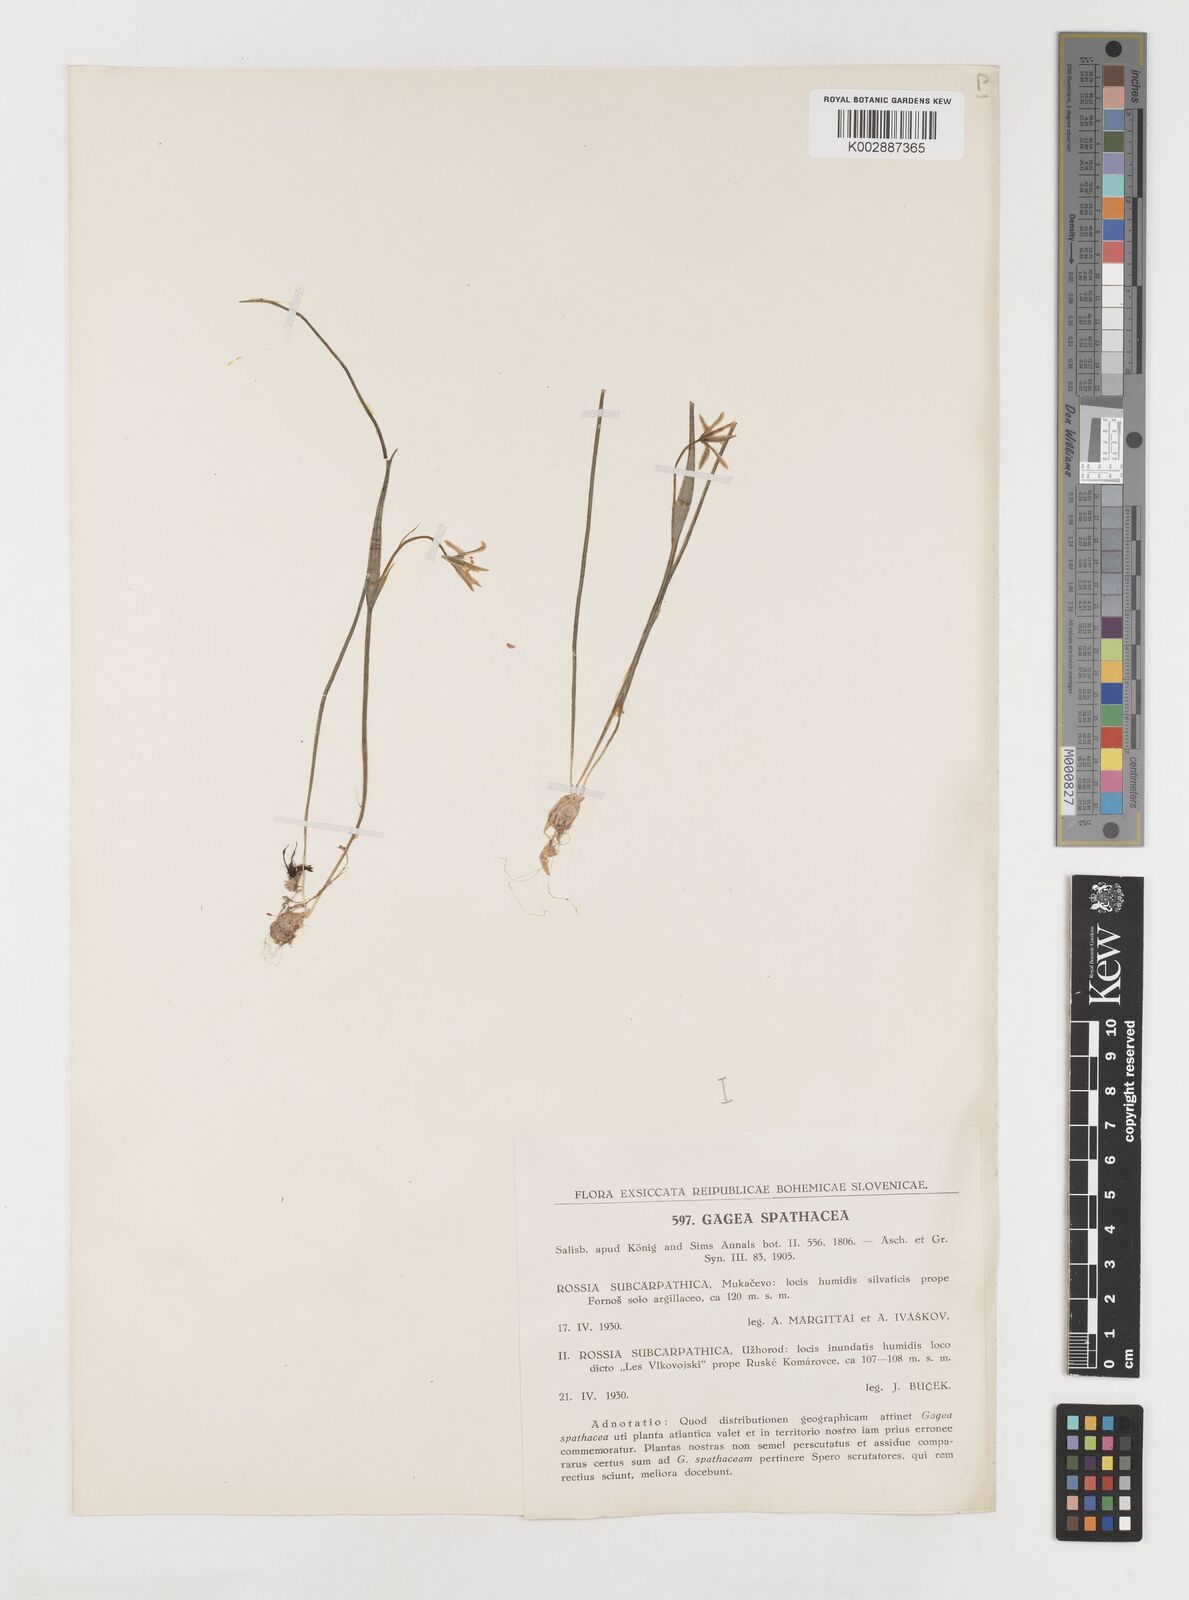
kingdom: Plantae
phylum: Tracheophyta
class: Liliopsida
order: Liliales
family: Liliaceae
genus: Gagea
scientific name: Gagea spathacea
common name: Belgian gagea
